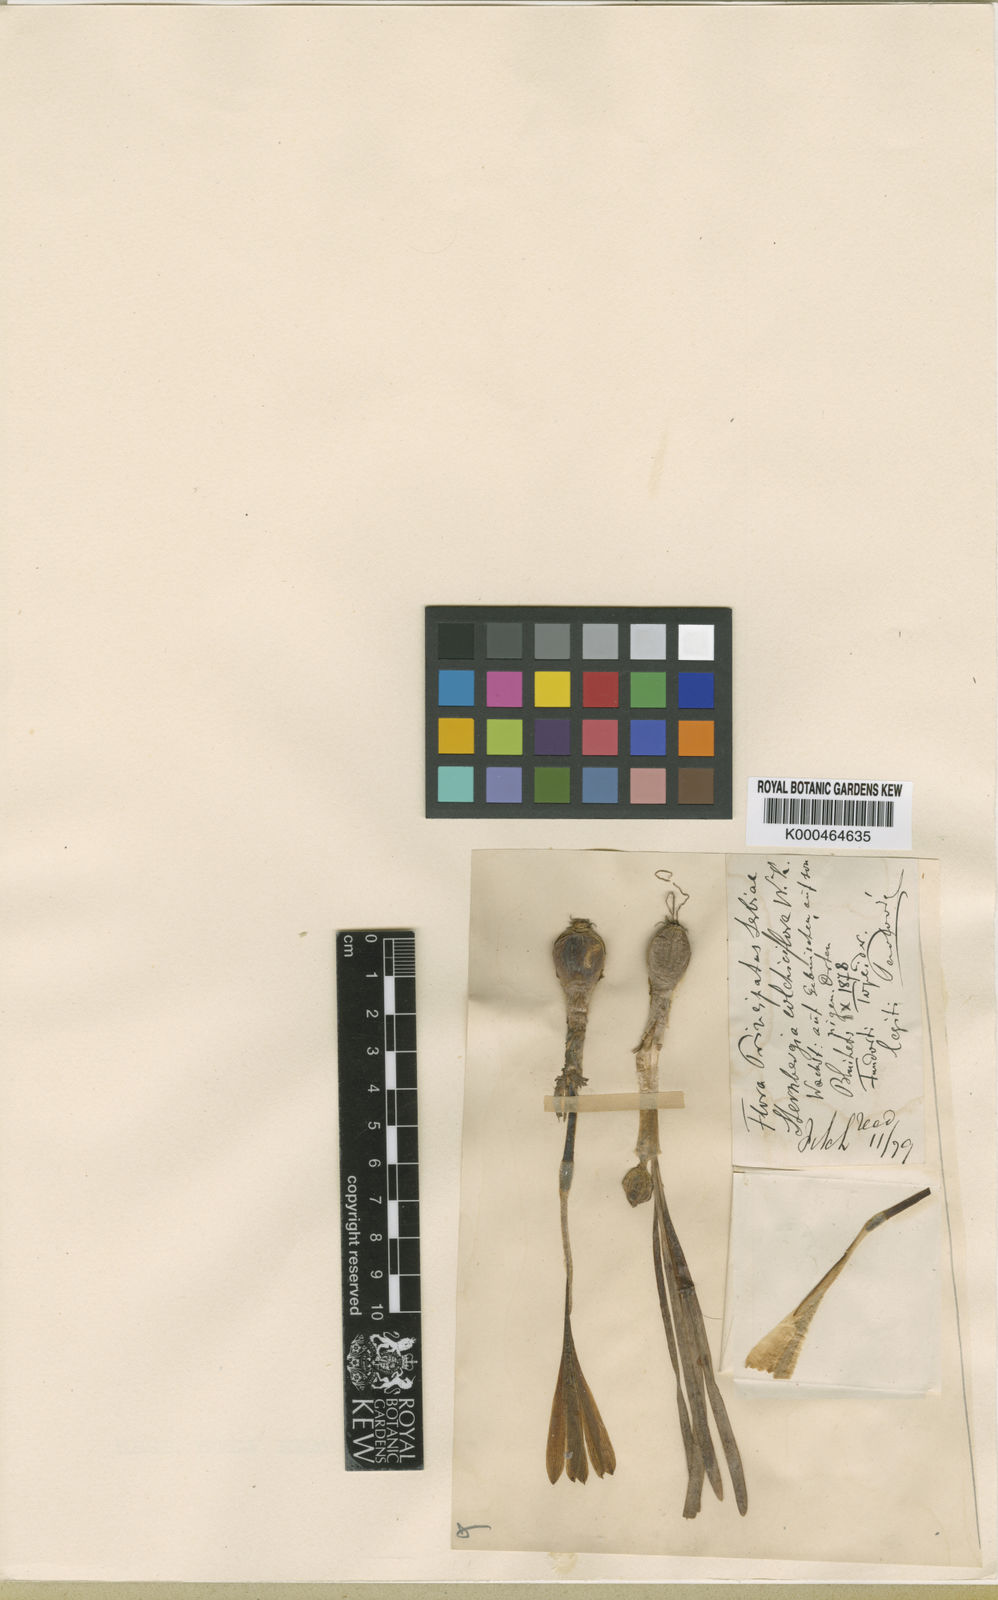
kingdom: Plantae
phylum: Tracheophyta
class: Liliopsida
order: Asparagales
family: Amaryllidaceae
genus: Sternbergia
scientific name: Sternbergia colchiciflora
